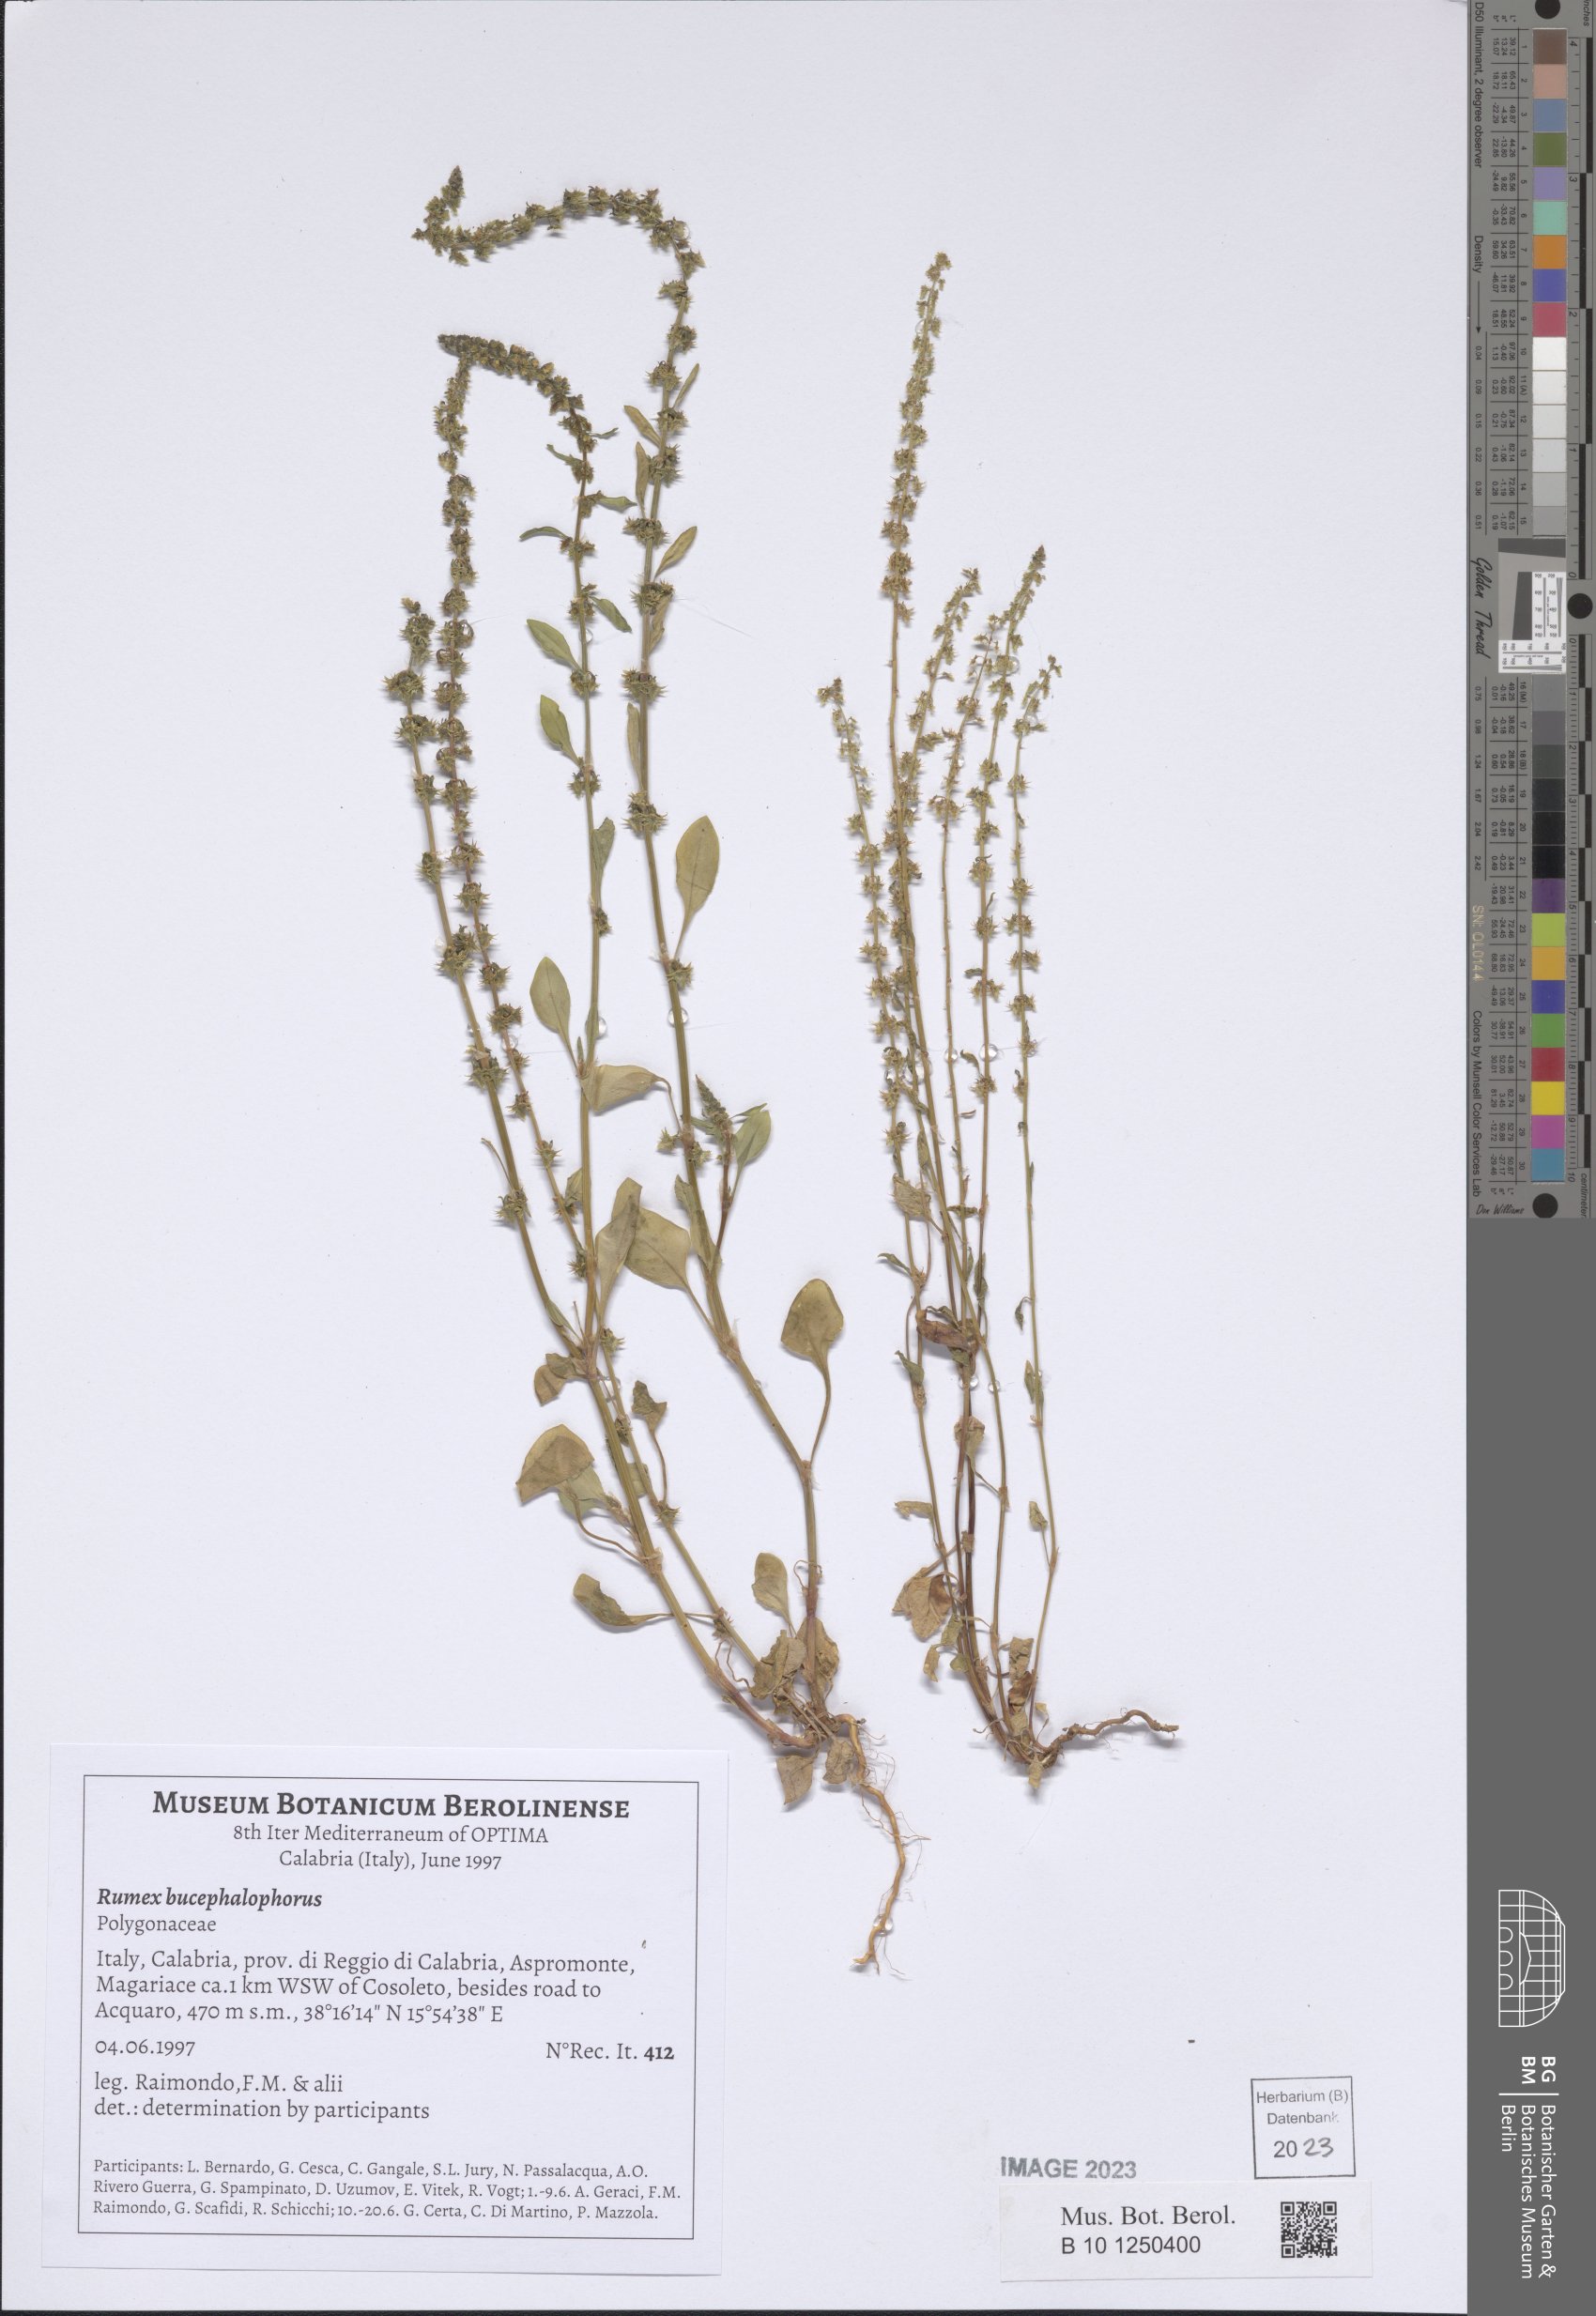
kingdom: Plantae
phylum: Tracheophyta
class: Magnoliopsida
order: Caryophyllales
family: Polygonaceae
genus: Rumex
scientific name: Rumex bucephalophorus
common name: Red dock
